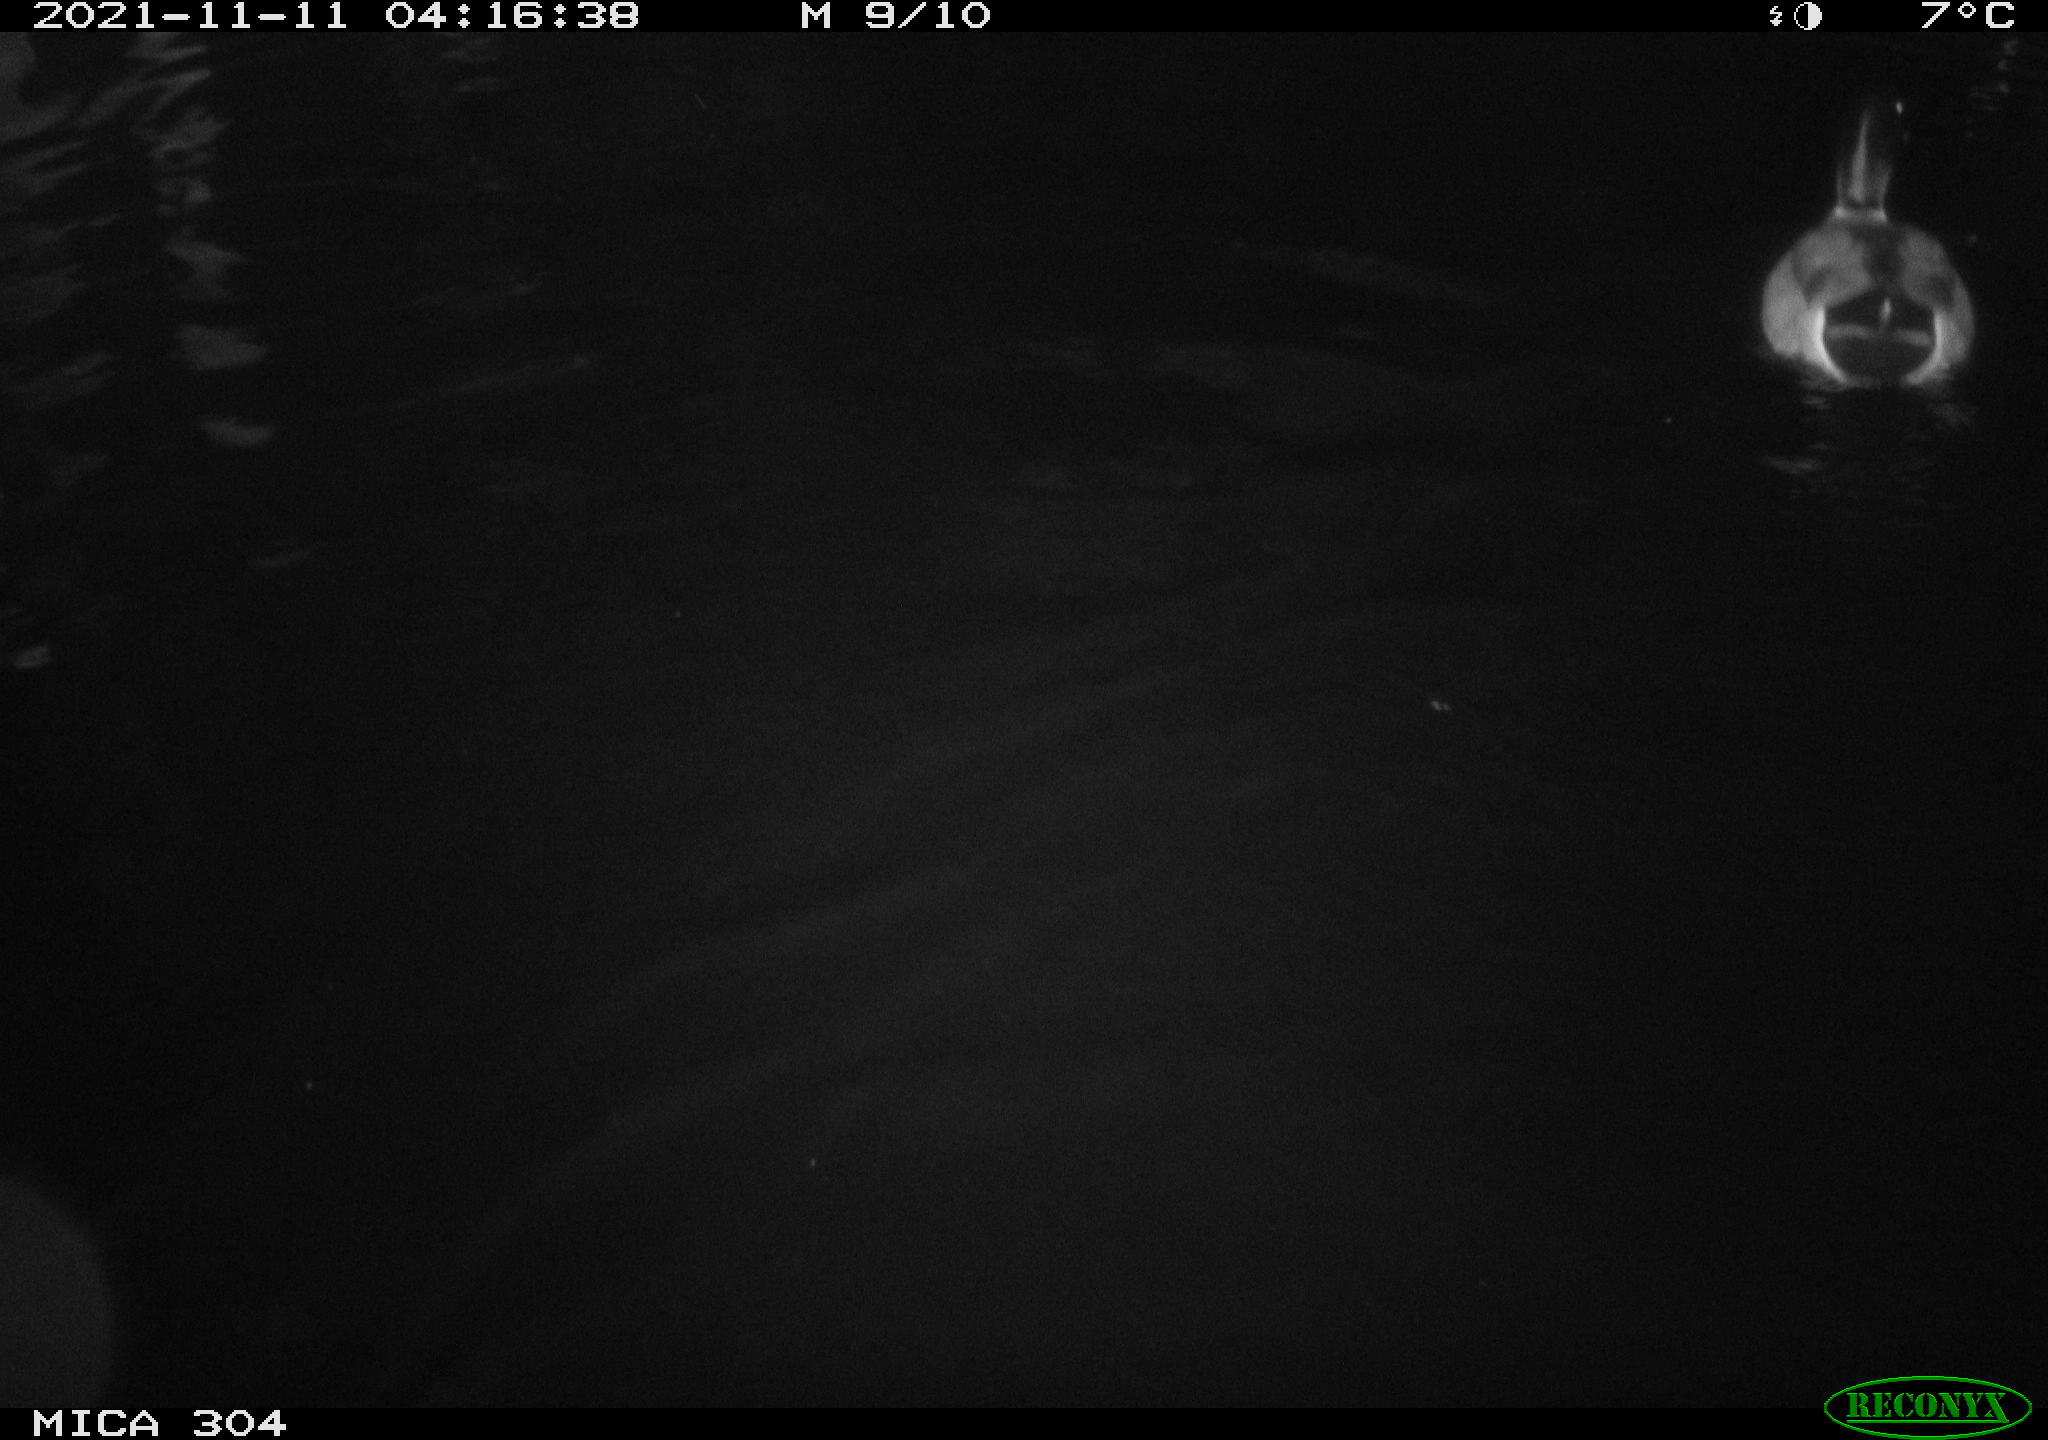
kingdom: Animalia
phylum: Chordata
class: Aves
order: Anseriformes
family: Anatidae
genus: Anas
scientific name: Anas platyrhynchos
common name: Mallard
